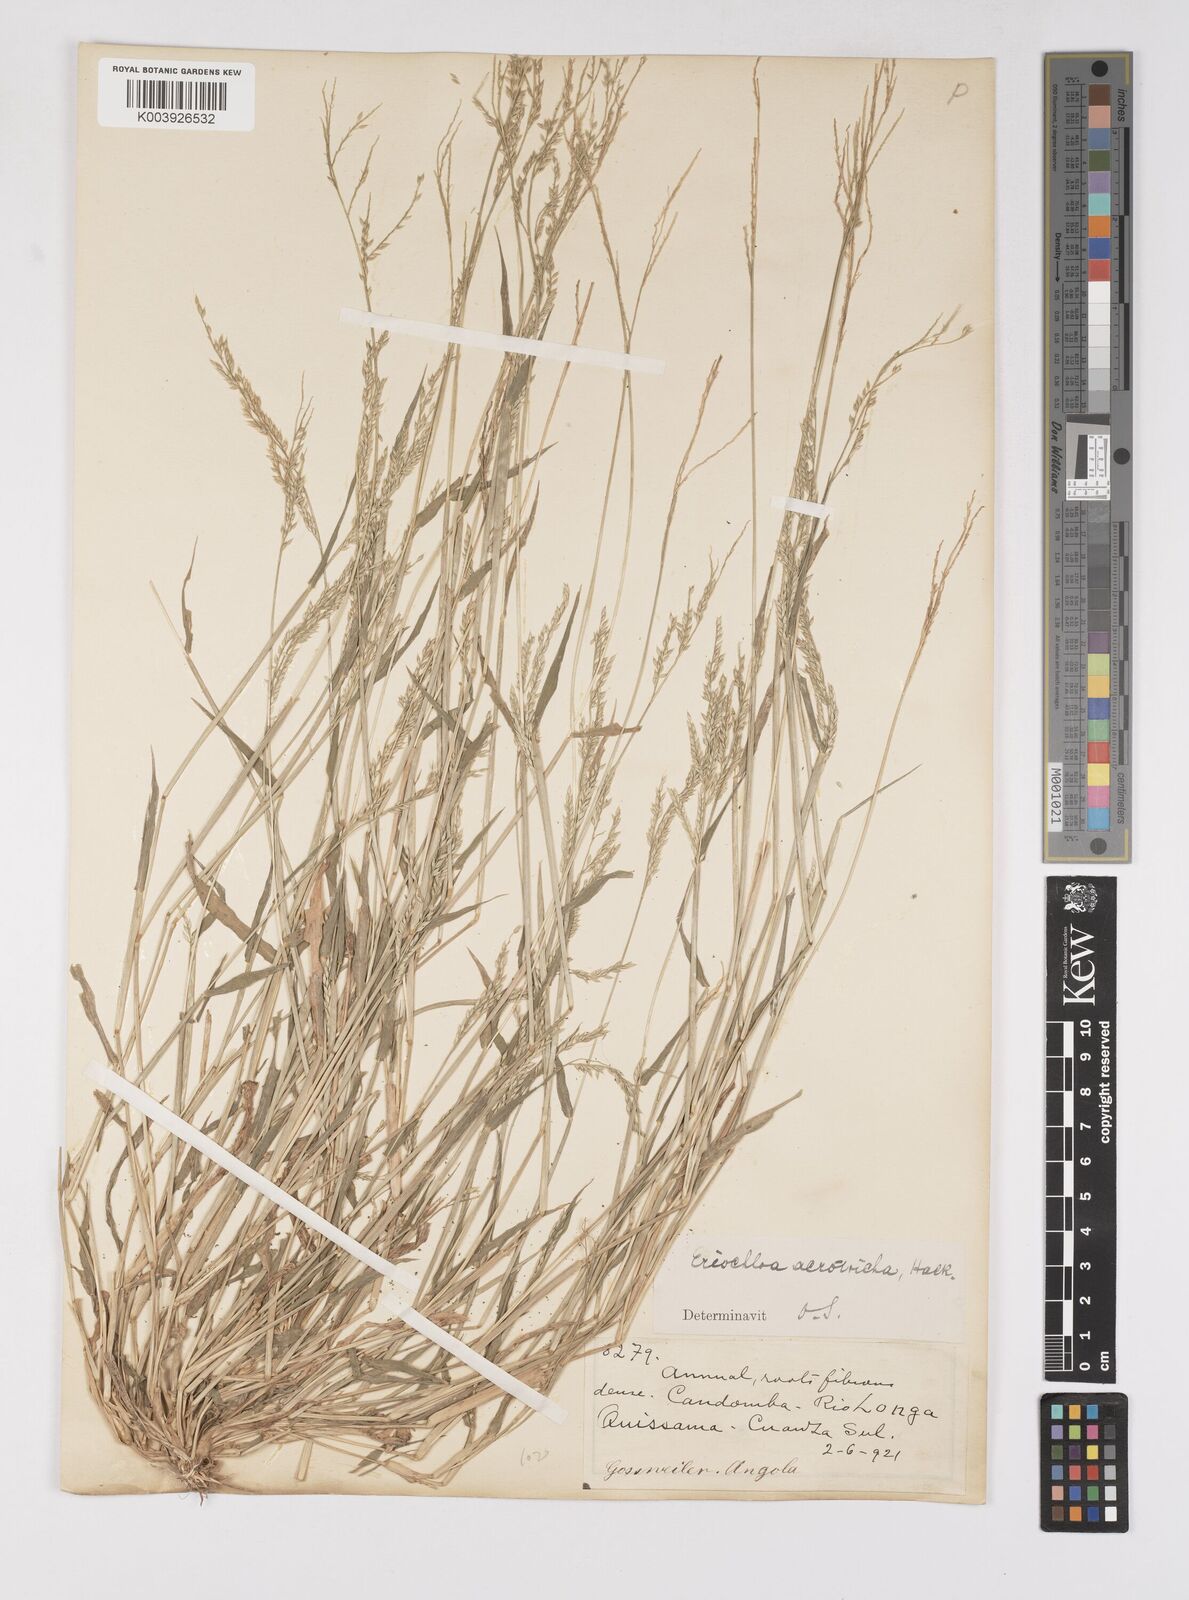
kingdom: Plantae
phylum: Tracheophyta
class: Liliopsida
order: Poales
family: Poaceae
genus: Eriochloa
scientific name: Eriochloa barbatus
